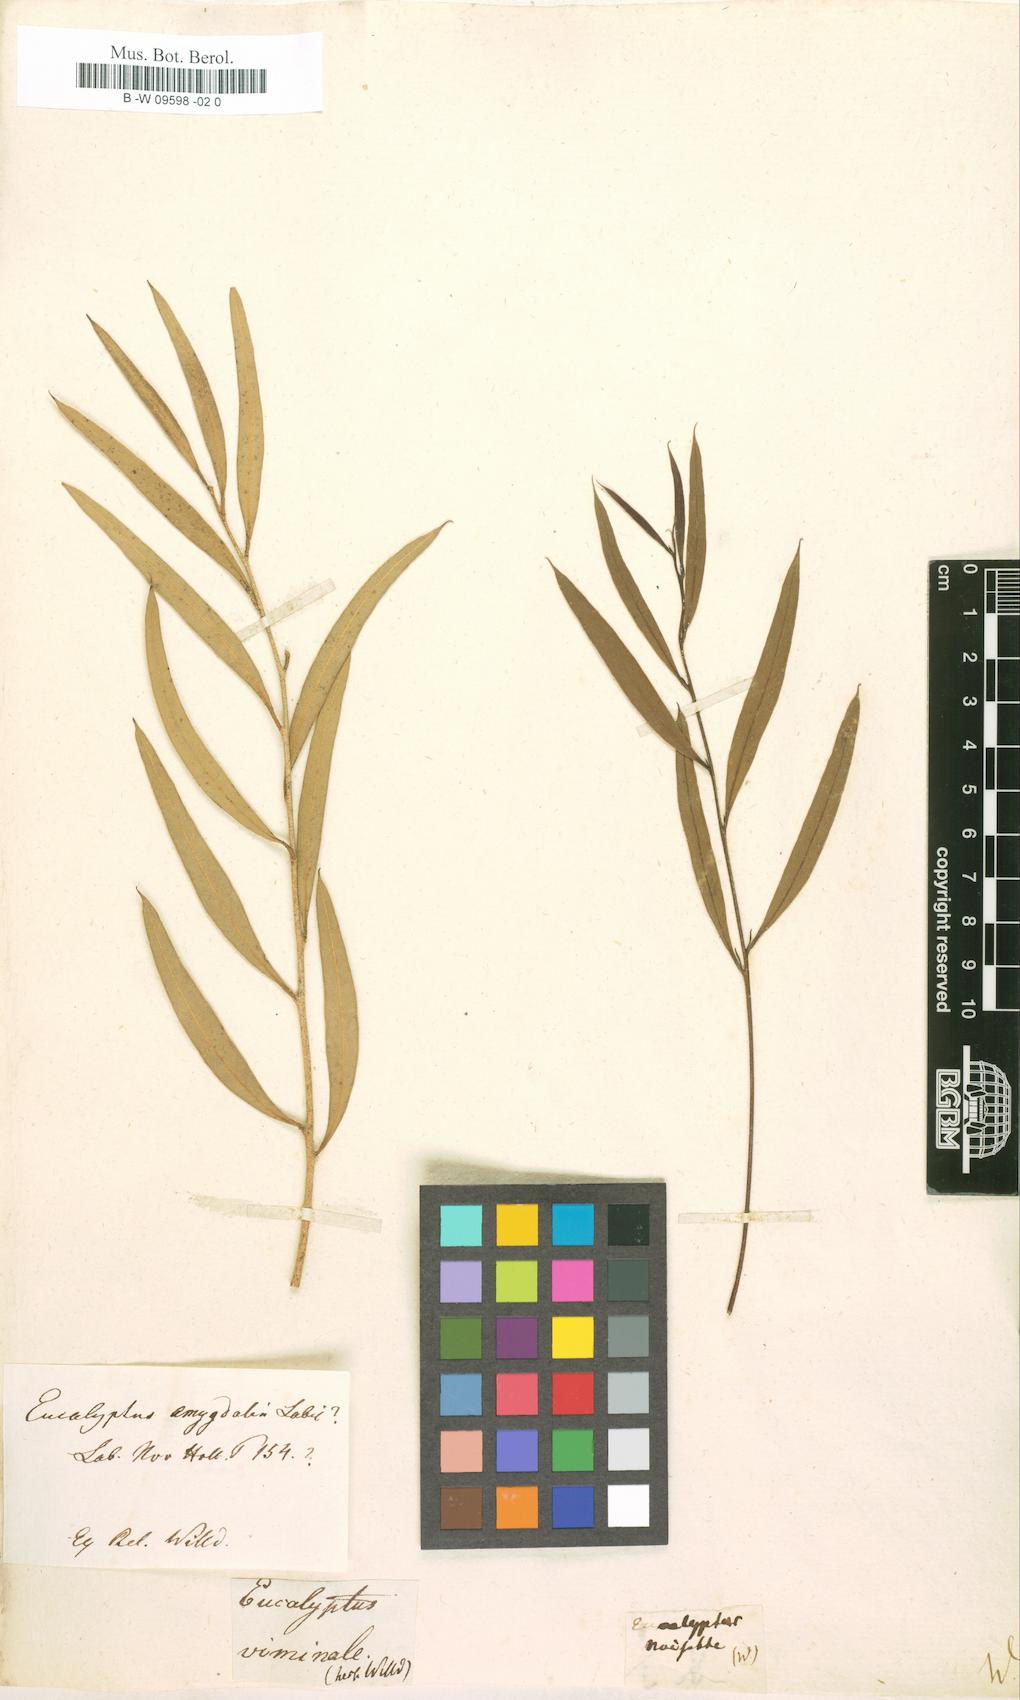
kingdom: Plantae
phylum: Tracheophyta
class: Magnoliopsida
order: Myrtales
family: Myrtaceae
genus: Eucalyptus
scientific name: Eucalyptus amygdalina
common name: Black peppermint
